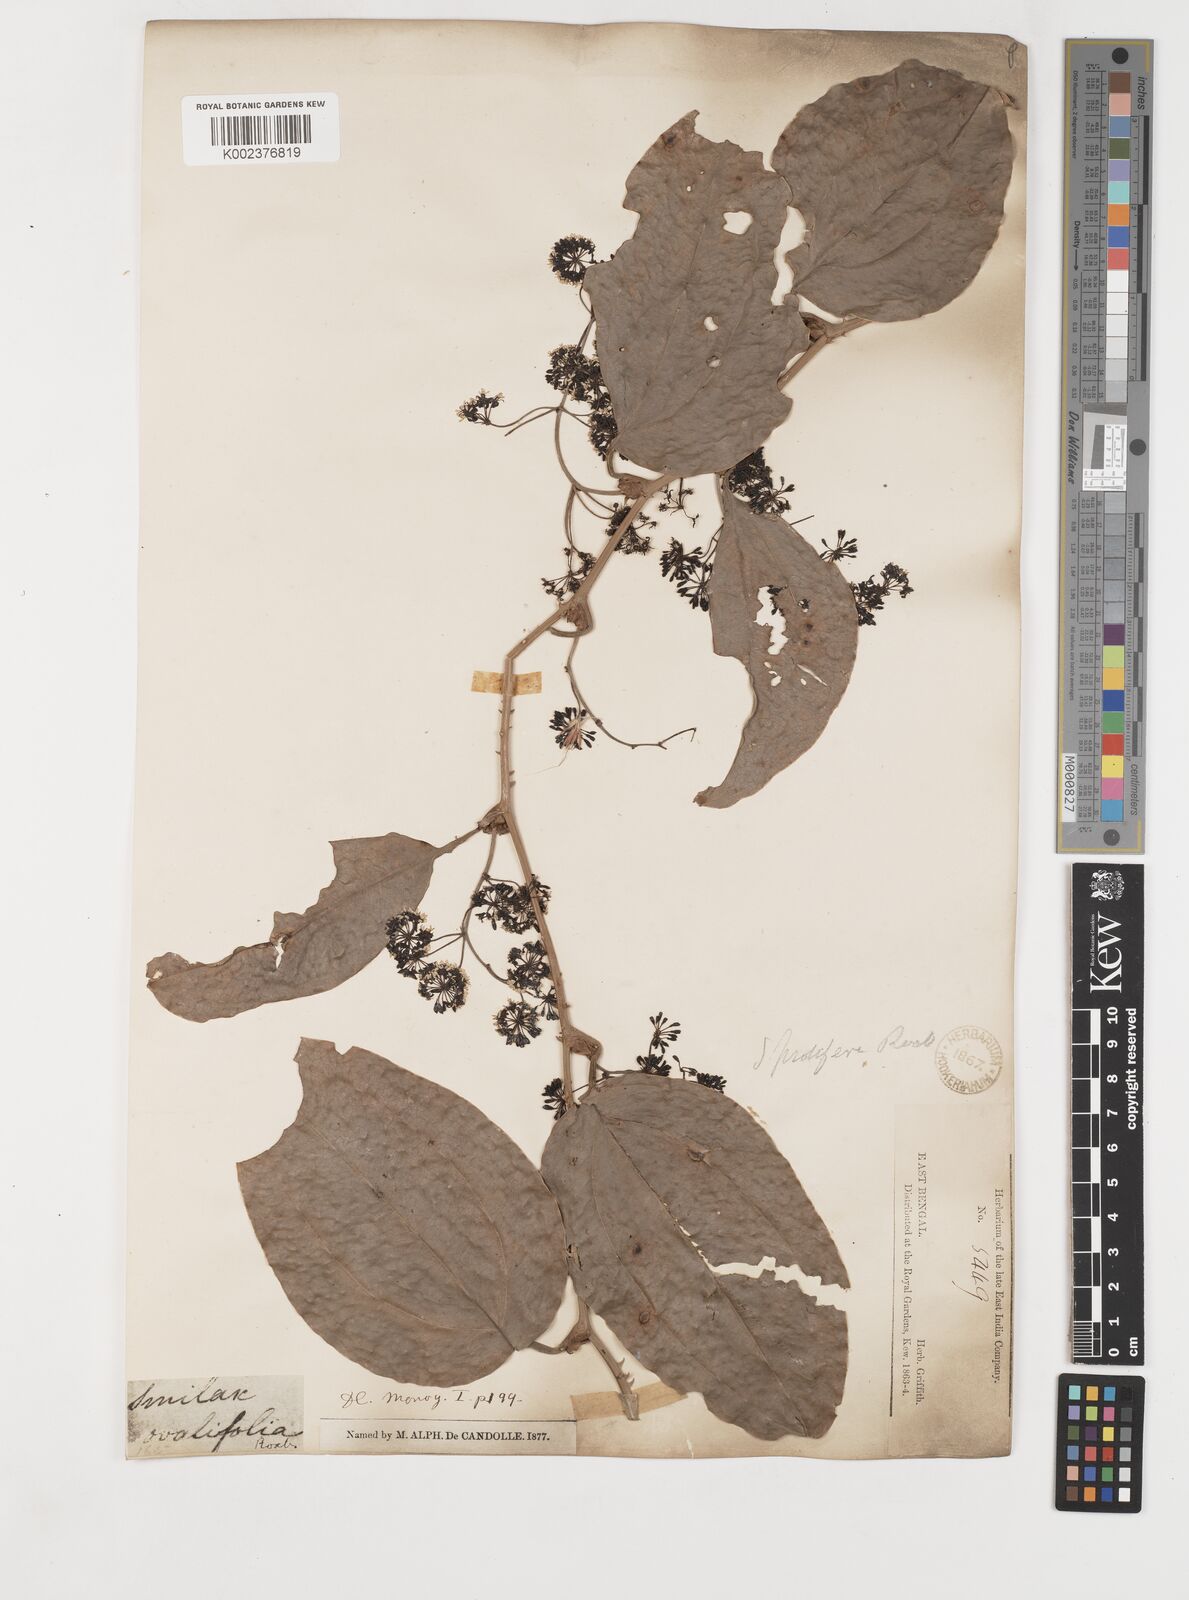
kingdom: Plantae
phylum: Tracheophyta
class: Liliopsida
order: Liliales
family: Smilacaceae
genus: Smilax
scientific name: Smilax prolifera
